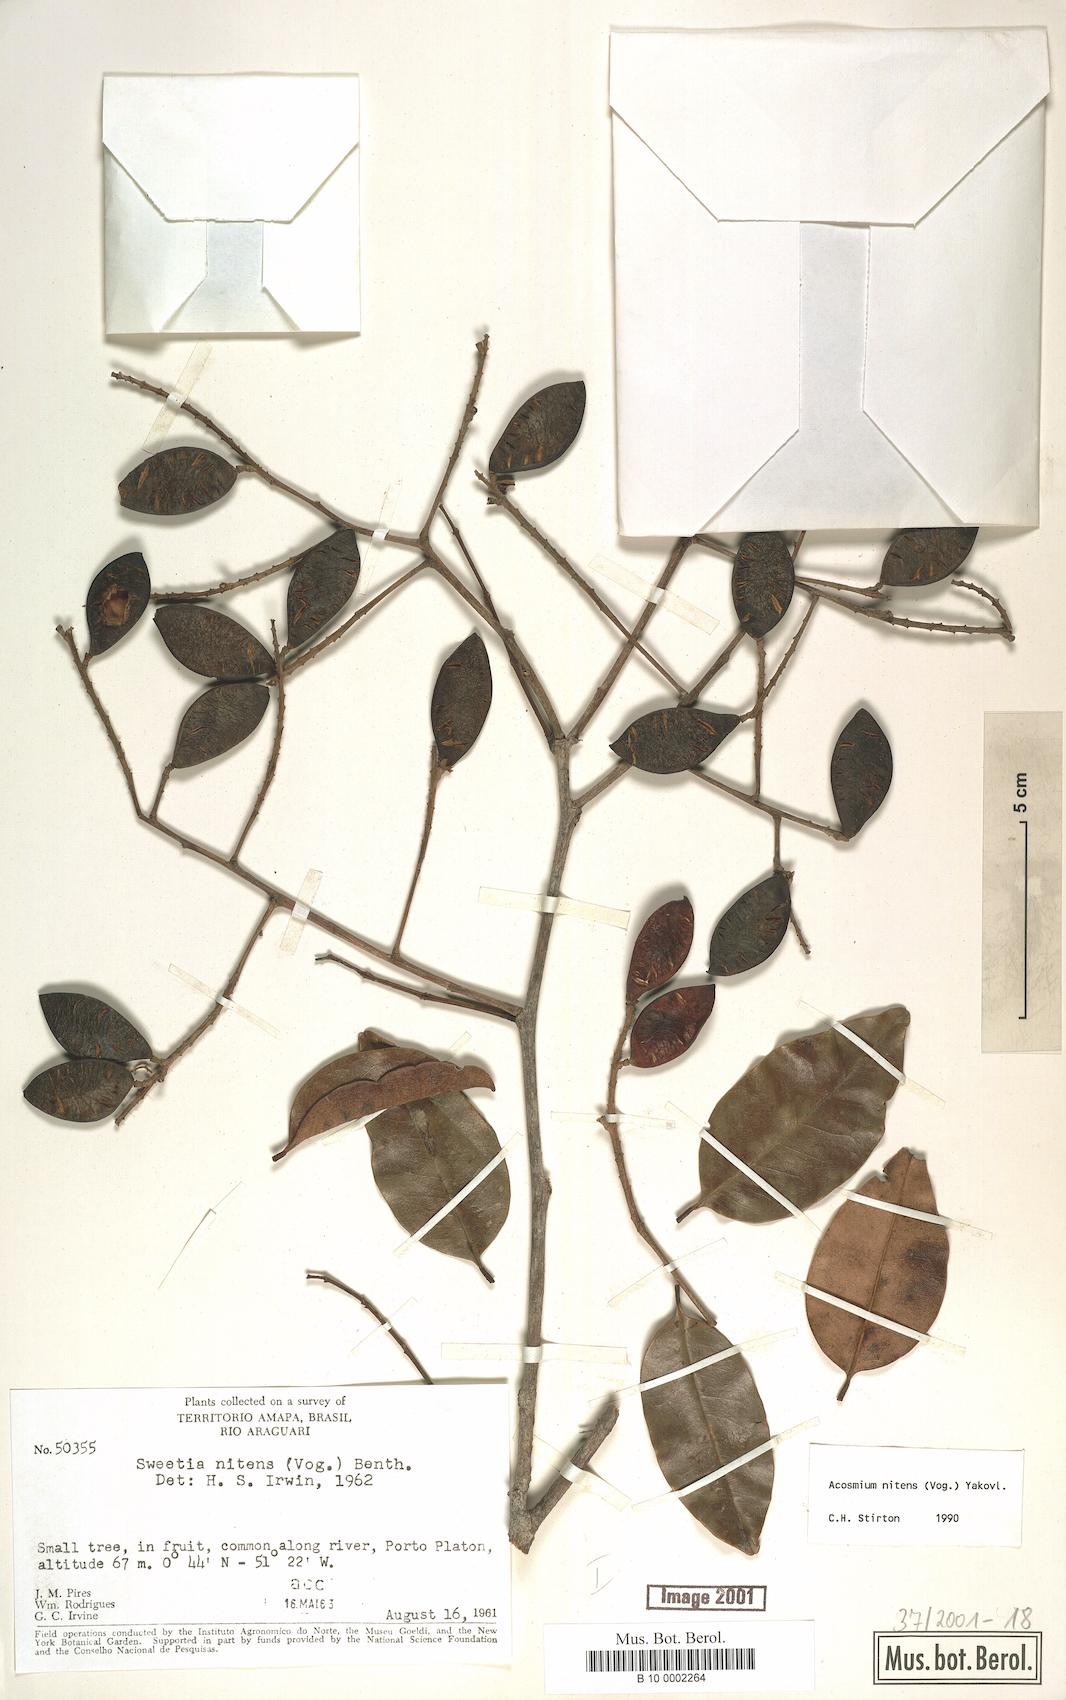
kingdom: Plantae
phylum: Tracheophyta
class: Magnoliopsida
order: Fabales
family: Fabaceae
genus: Leptolobium
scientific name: Leptolobium nitens
